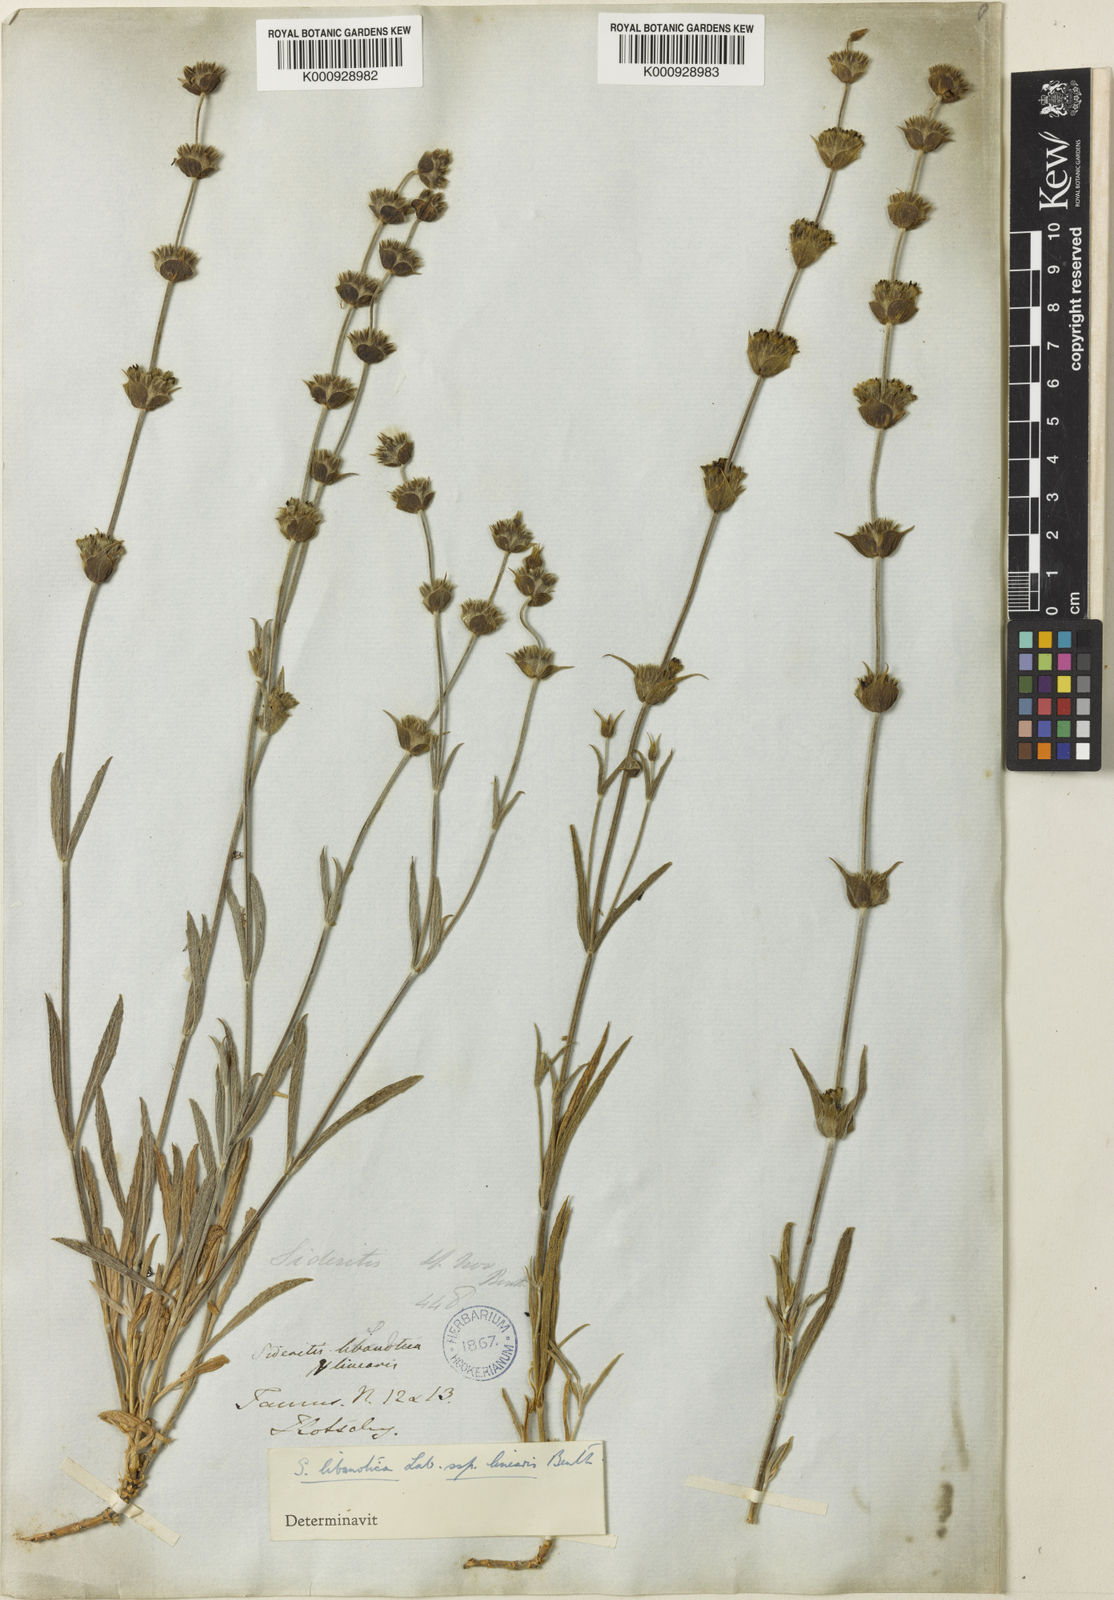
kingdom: Plantae
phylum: Tracheophyta
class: Magnoliopsida
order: Lamiales
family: Lamiaceae
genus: Sideritis
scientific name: Sideritis libanotica
